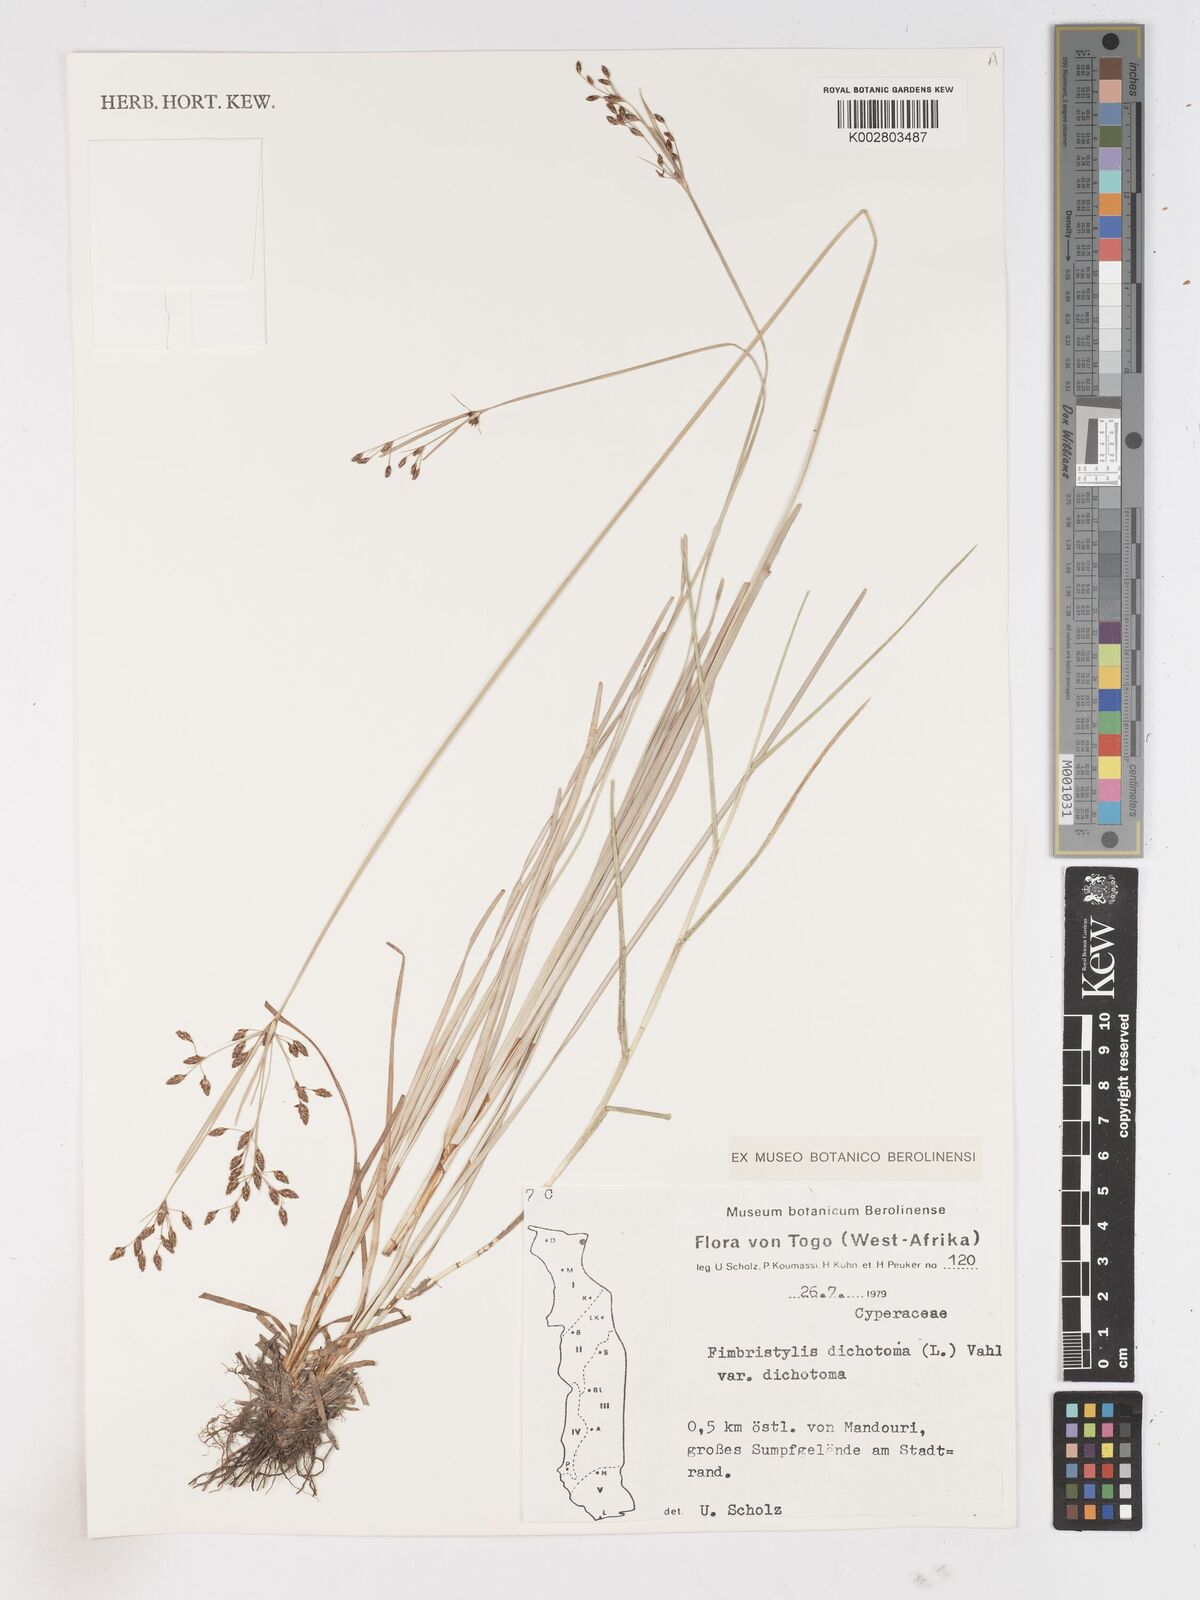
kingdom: Plantae
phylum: Tracheophyta
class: Liliopsida
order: Poales
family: Cyperaceae
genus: Fimbristylis
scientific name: Fimbristylis dichotoma
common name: Forked fimbry
